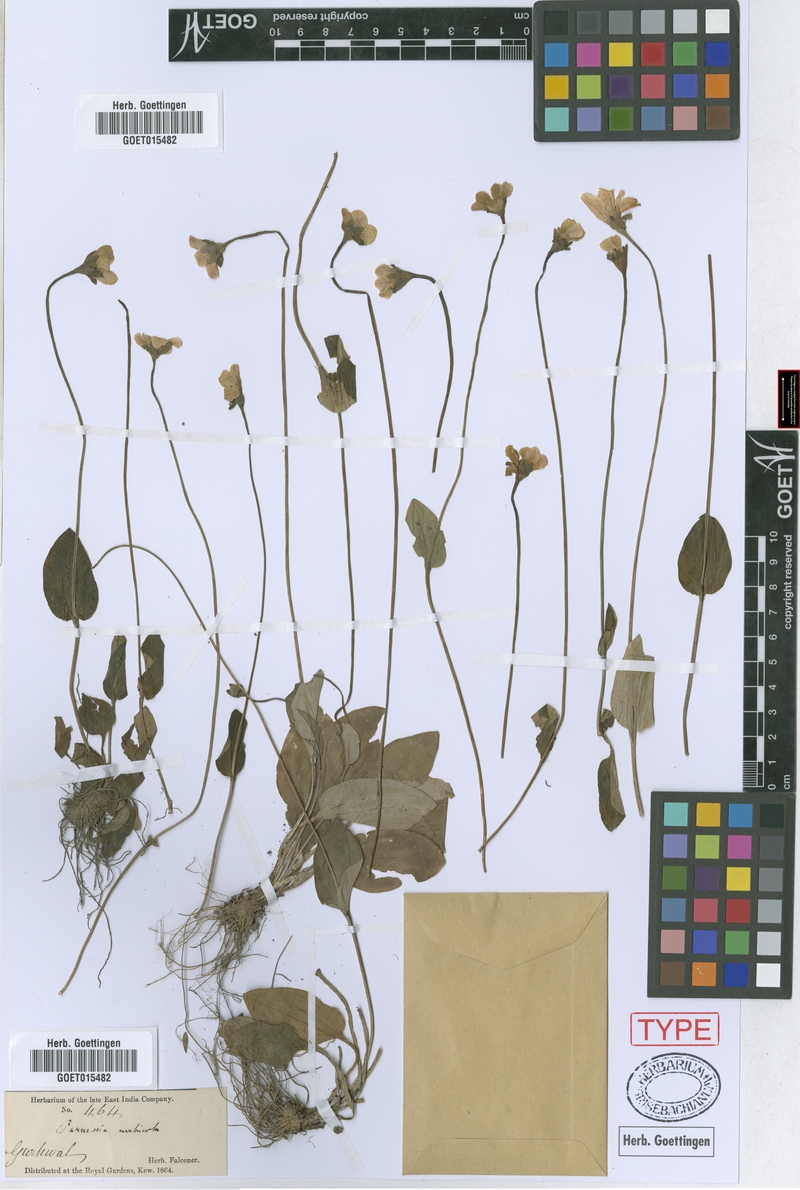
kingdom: Plantae
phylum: Tracheophyta
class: Magnoliopsida
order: Celastrales
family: Parnassiaceae
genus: Parnassia
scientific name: Parnassia nubicola
